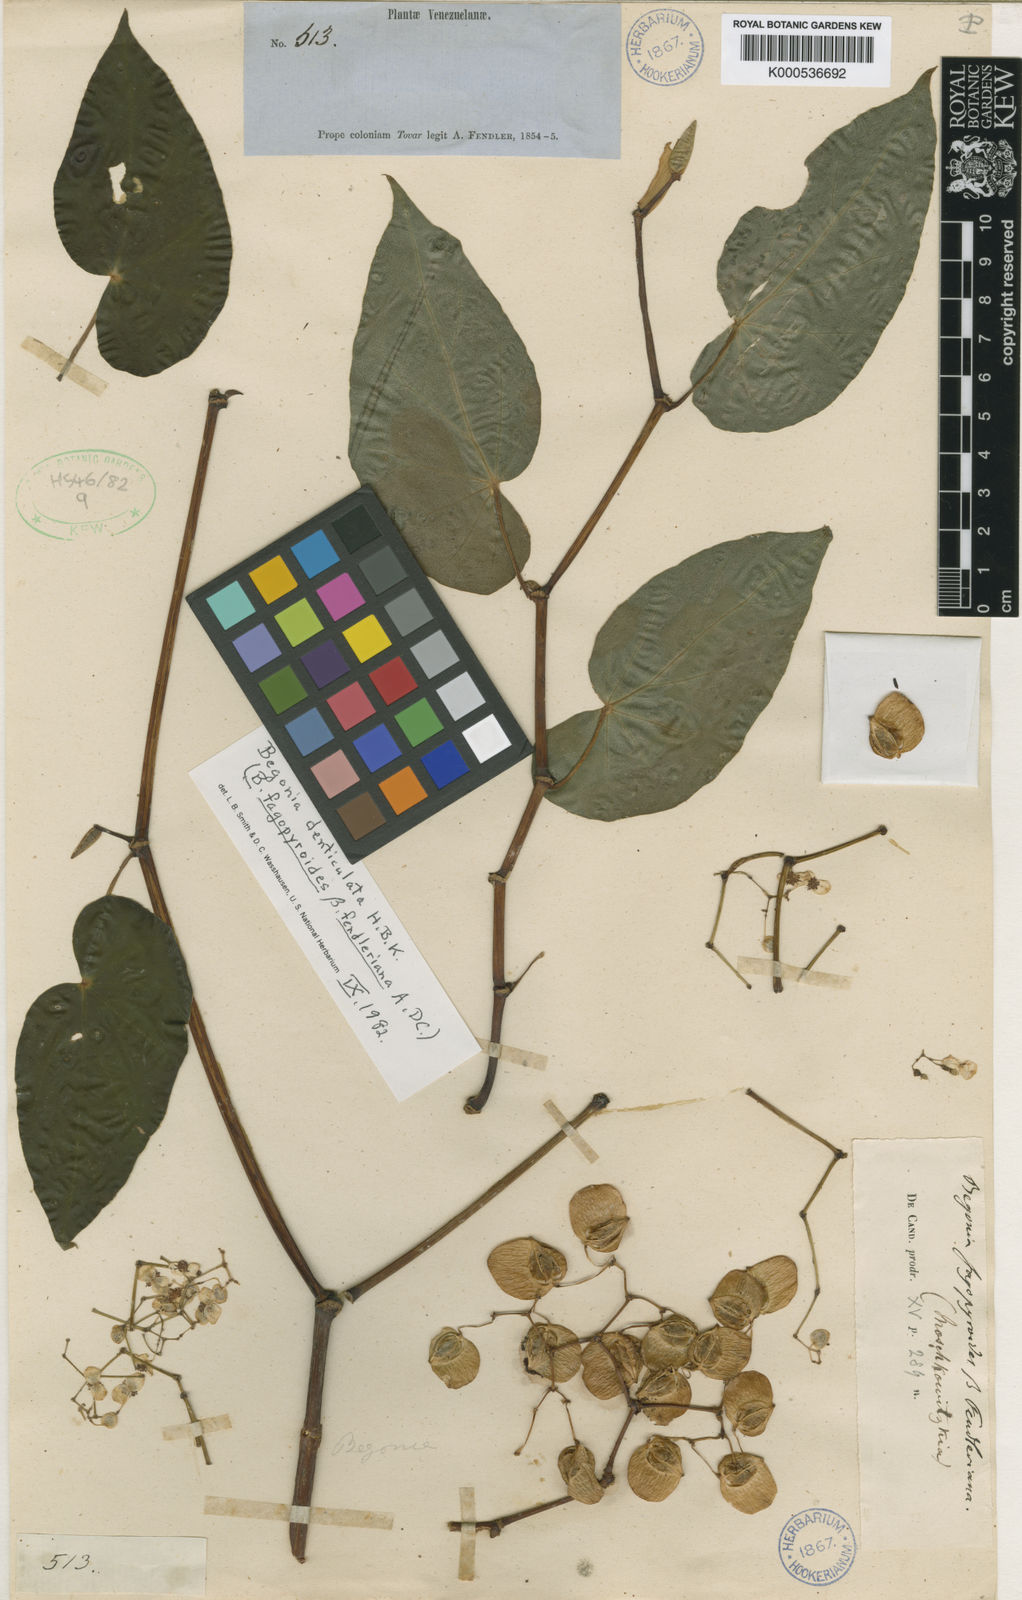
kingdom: Plantae
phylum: Tracheophyta
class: Magnoliopsida
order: Cucurbitales
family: Begoniaceae
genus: Begonia
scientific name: Begonia denticulata
